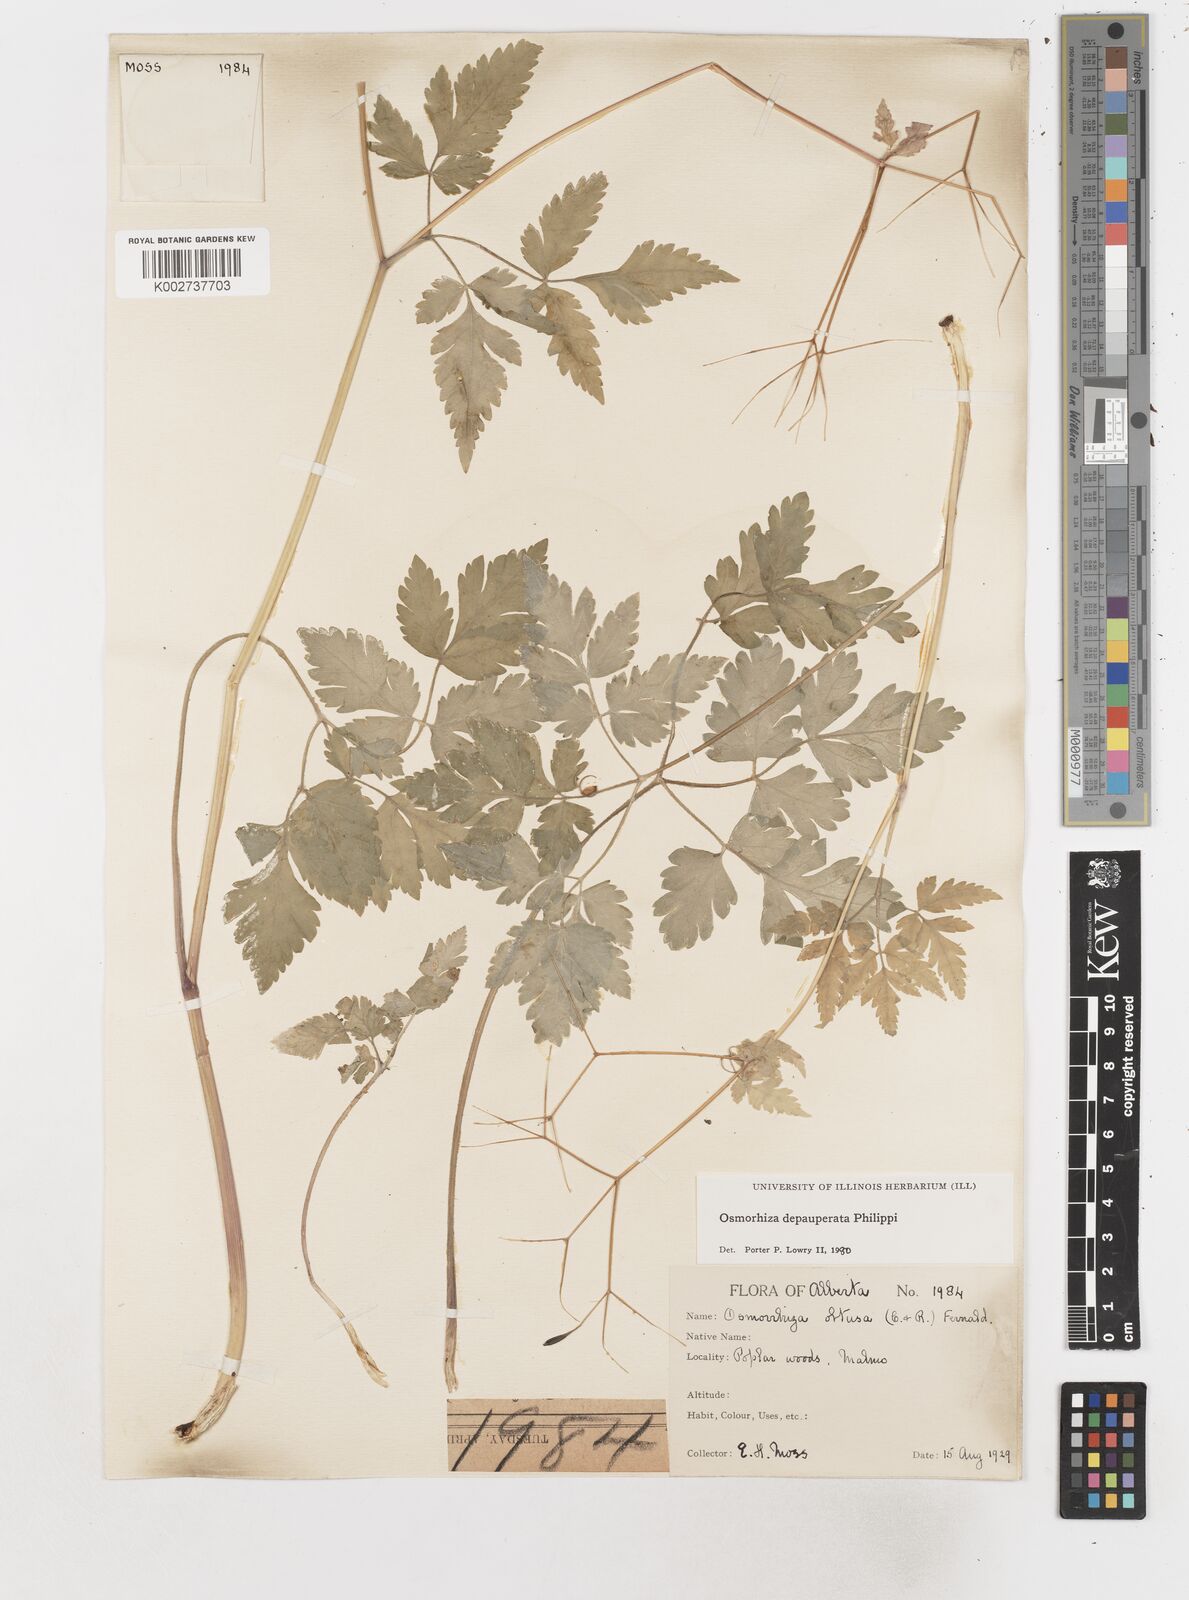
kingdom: Plantae
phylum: Tracheophyta
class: Magnoliopsida
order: Apiales
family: Apiaceae
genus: Osmorhiza
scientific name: Osmorhiza depauperata
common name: Blunt sweet cicely
